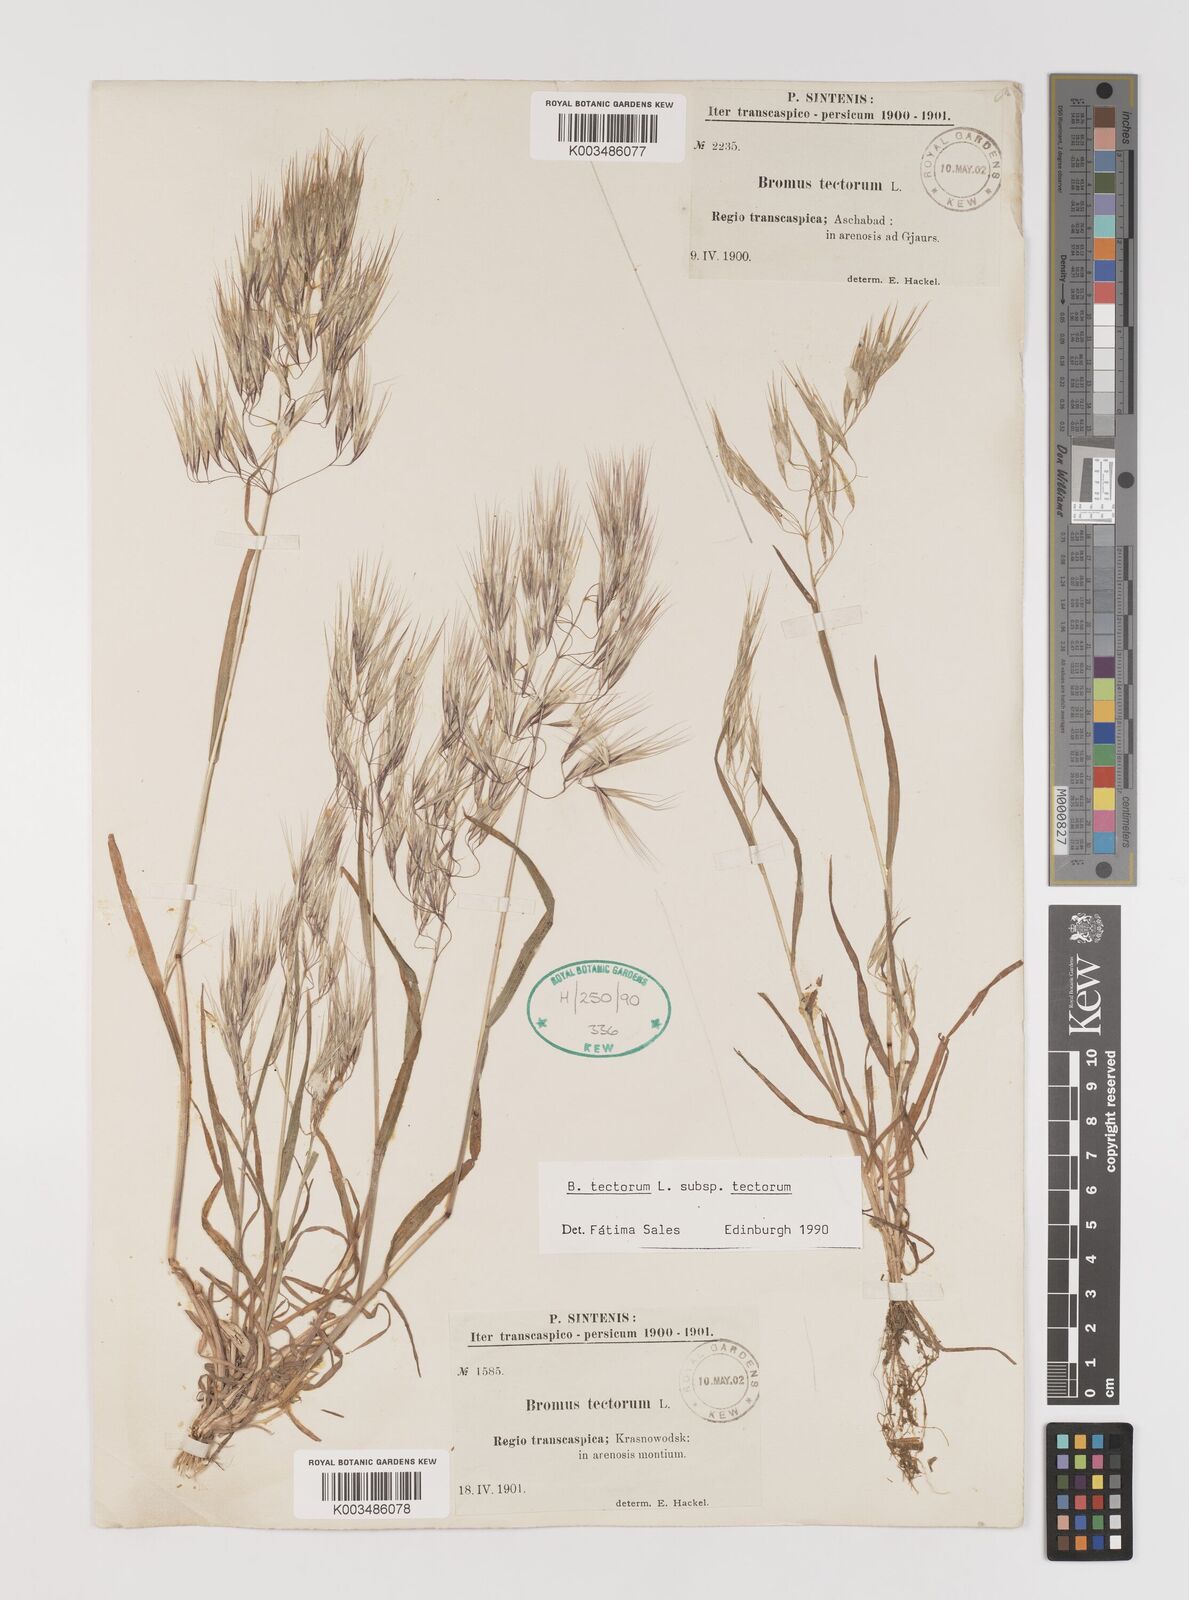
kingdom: Plantae
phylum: Tracheophyta
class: Liliopsida
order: Poales
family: Poaceae
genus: Bromus
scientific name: Bromus tectorum
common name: Cheatgrass
